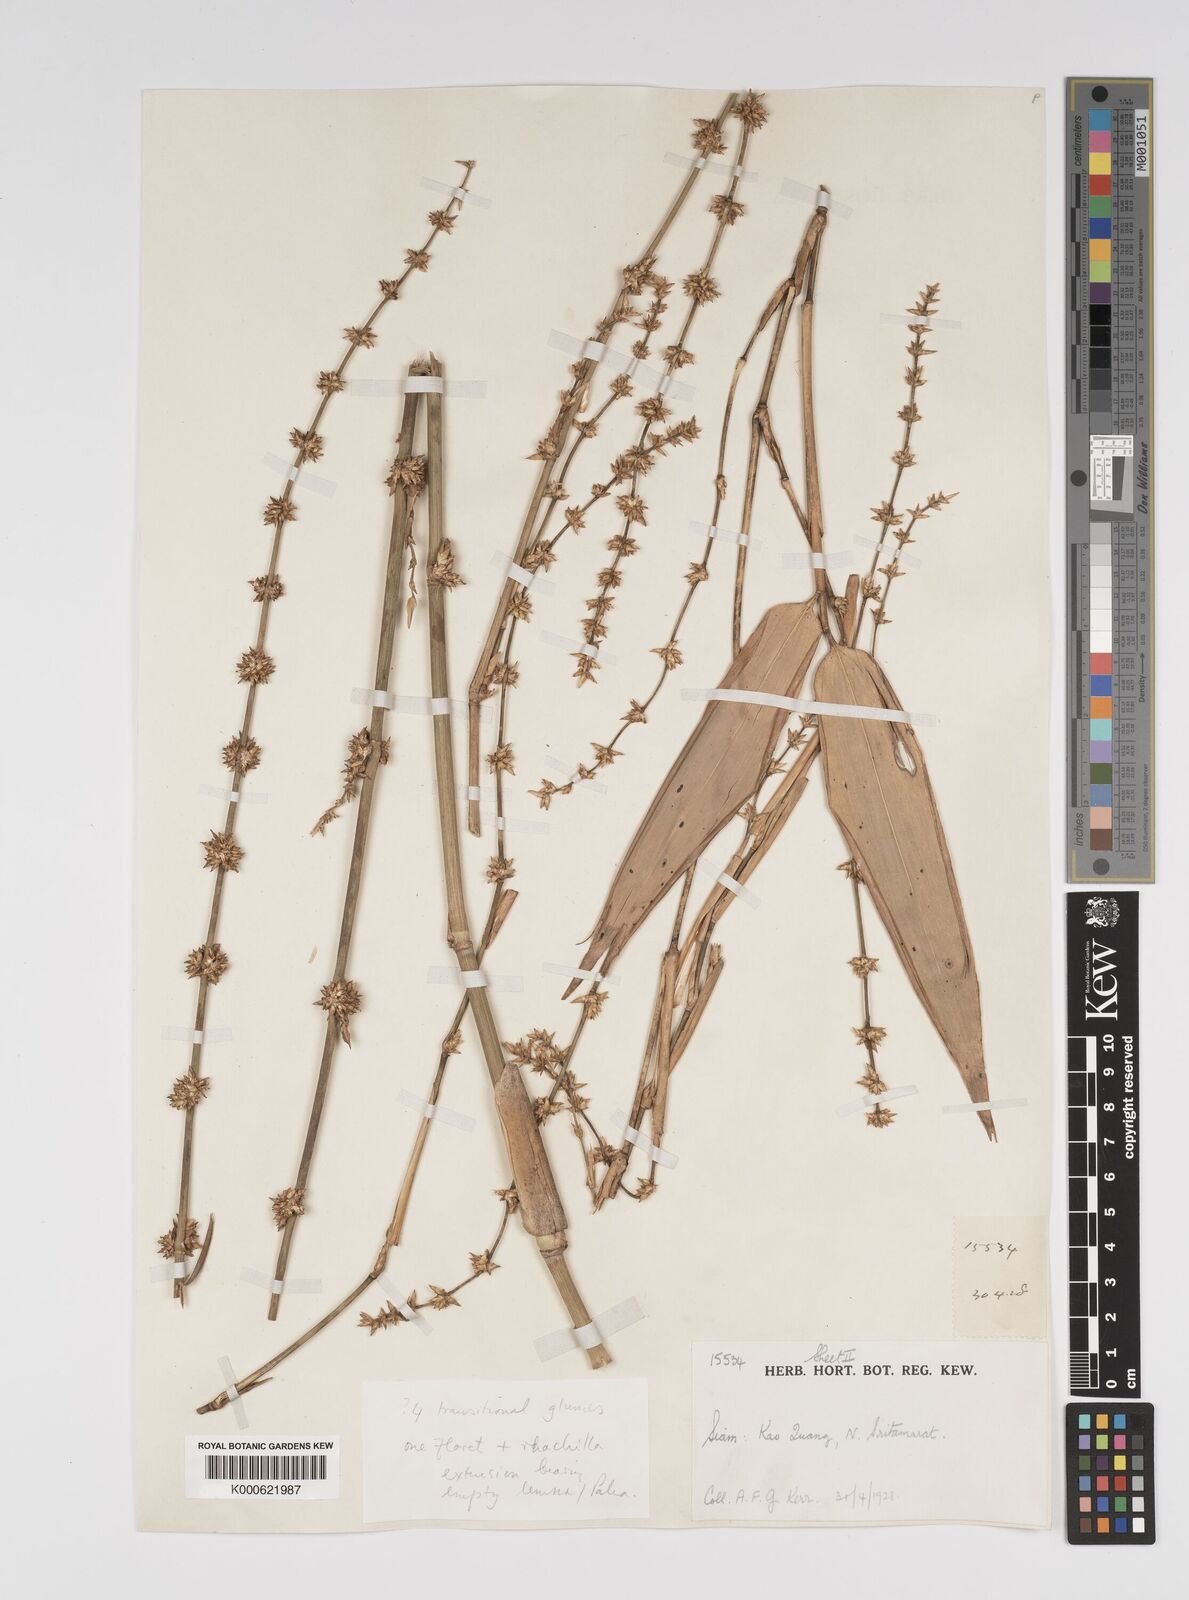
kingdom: Plantae
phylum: Tracheophyta
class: Liliopsida
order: Poales
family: Poaceae
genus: Bambusa
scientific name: Bambusa
